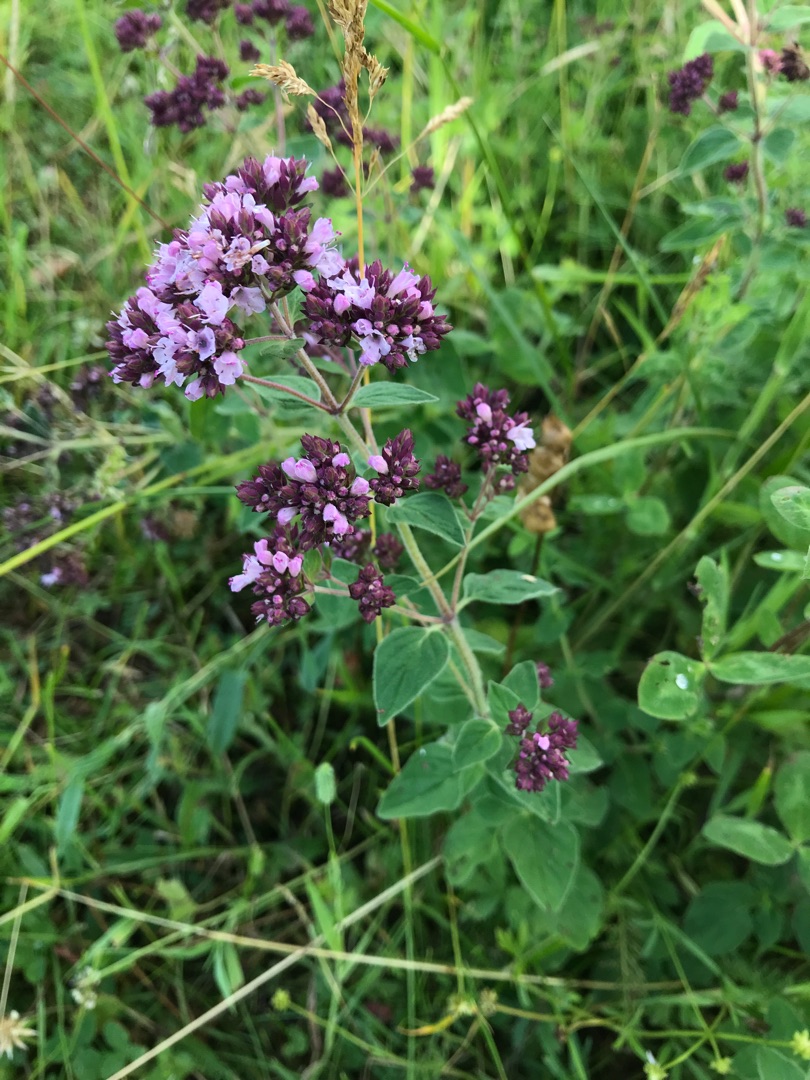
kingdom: Plantae
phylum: Tracheophyta
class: Magnoliopsida
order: Lamiales
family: Lamiaceae
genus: Origanum
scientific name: Origanum vulgare
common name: Merian
